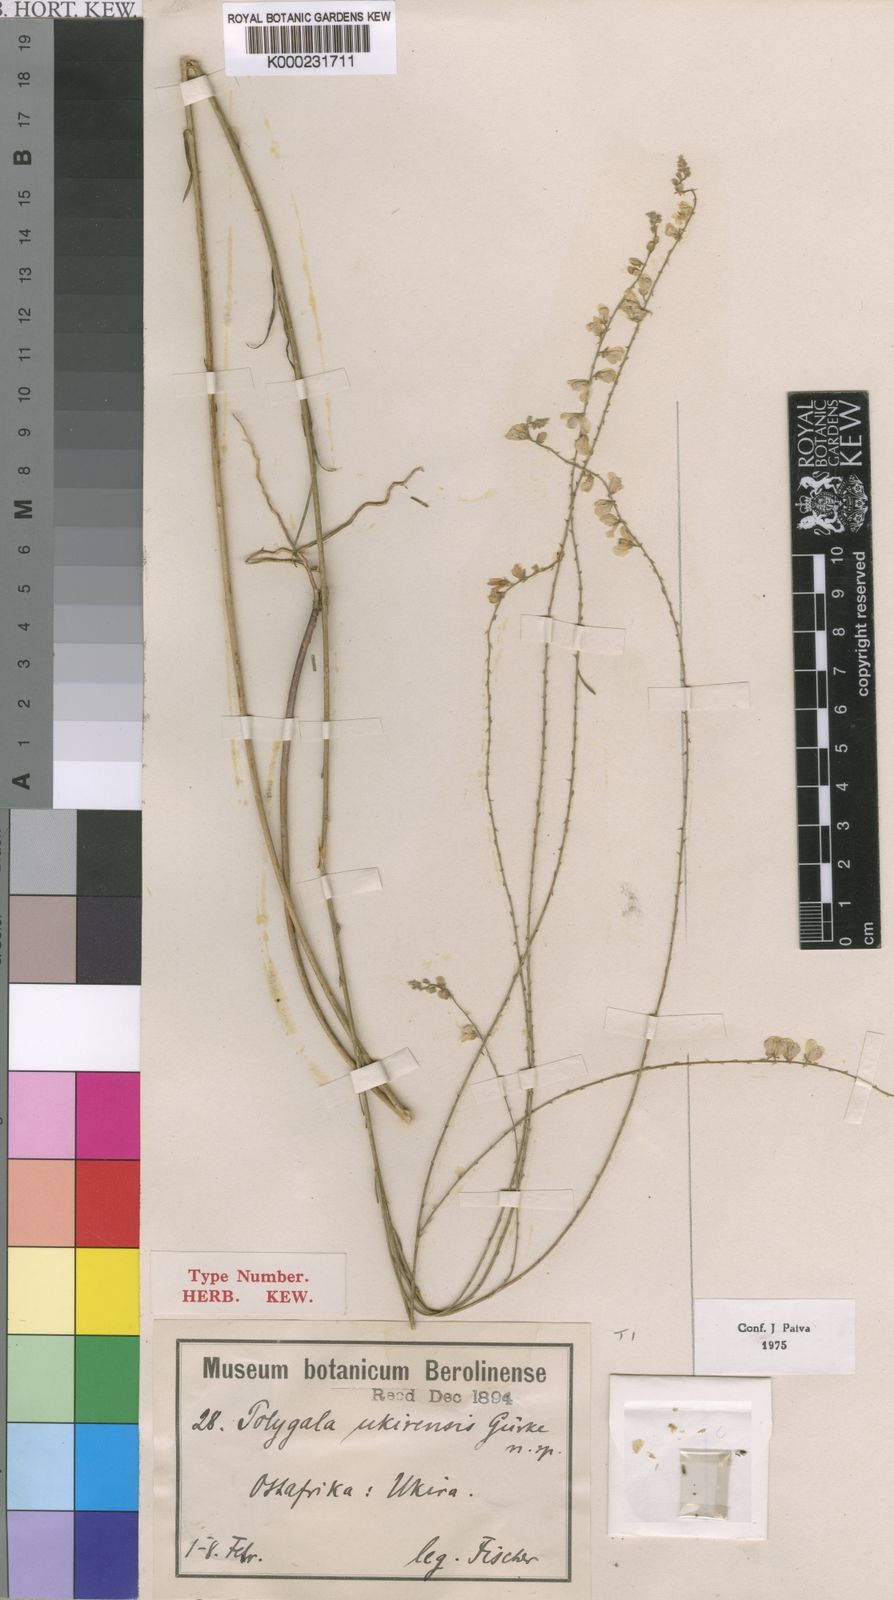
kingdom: Plantae
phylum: Tracheophyta
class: Magnoliopsida
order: Fabales
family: Polygalaceae
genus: Polygala
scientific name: Polygala sparsiflora
